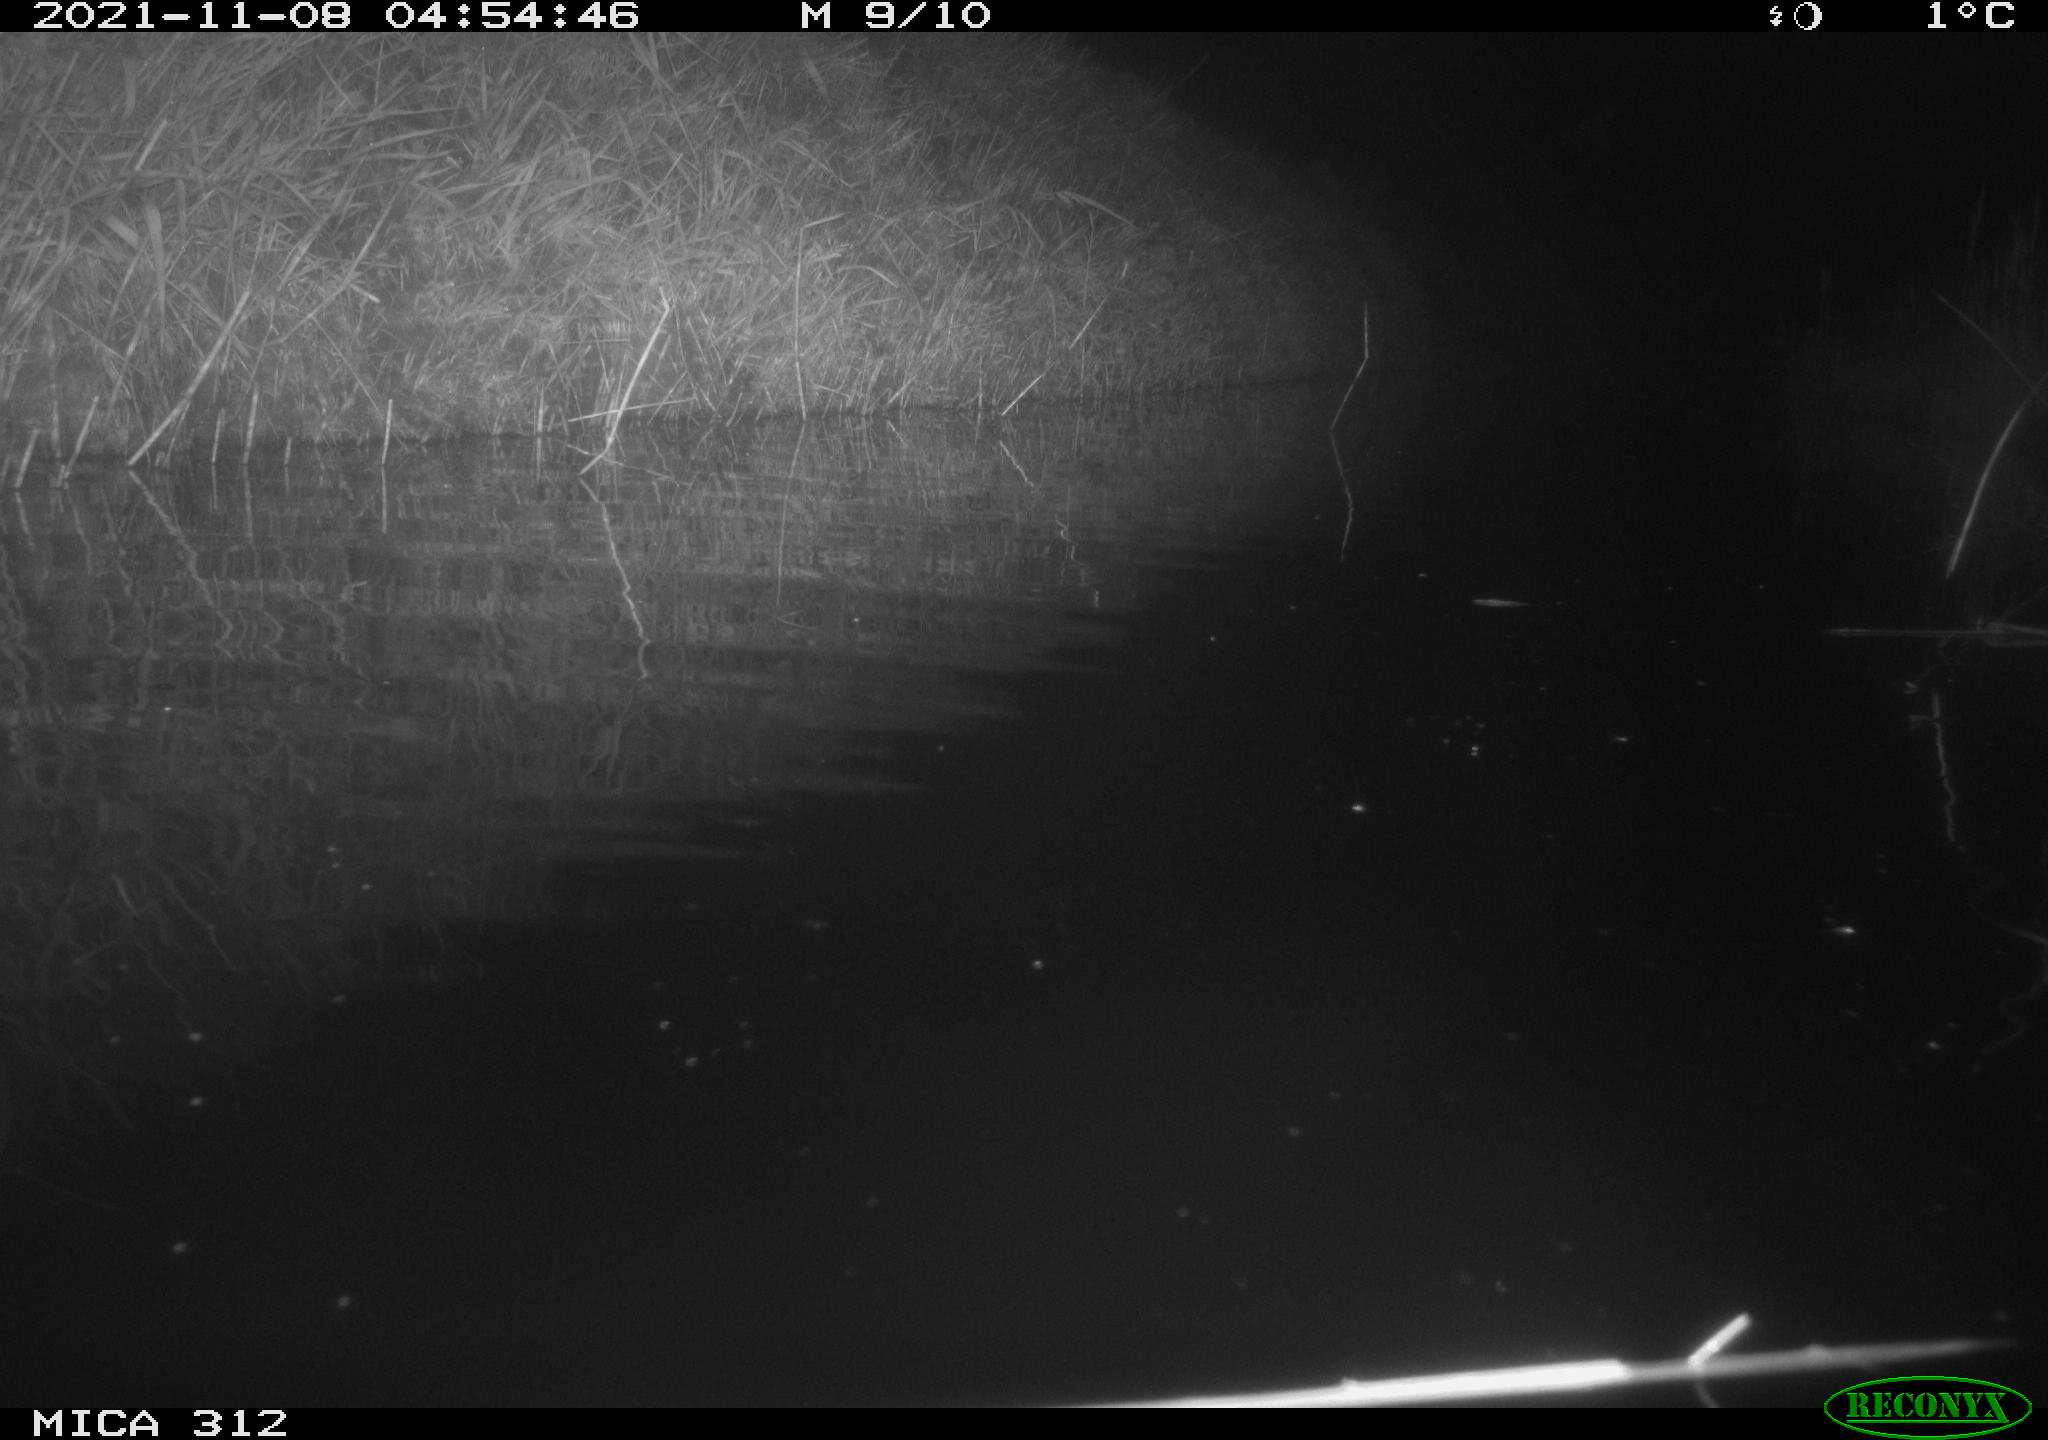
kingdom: Animalia
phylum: Chordata
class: Mammalia
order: Rodentia
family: Muridae
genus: Rattus
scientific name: Rattus norvegicus
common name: Brown rat
